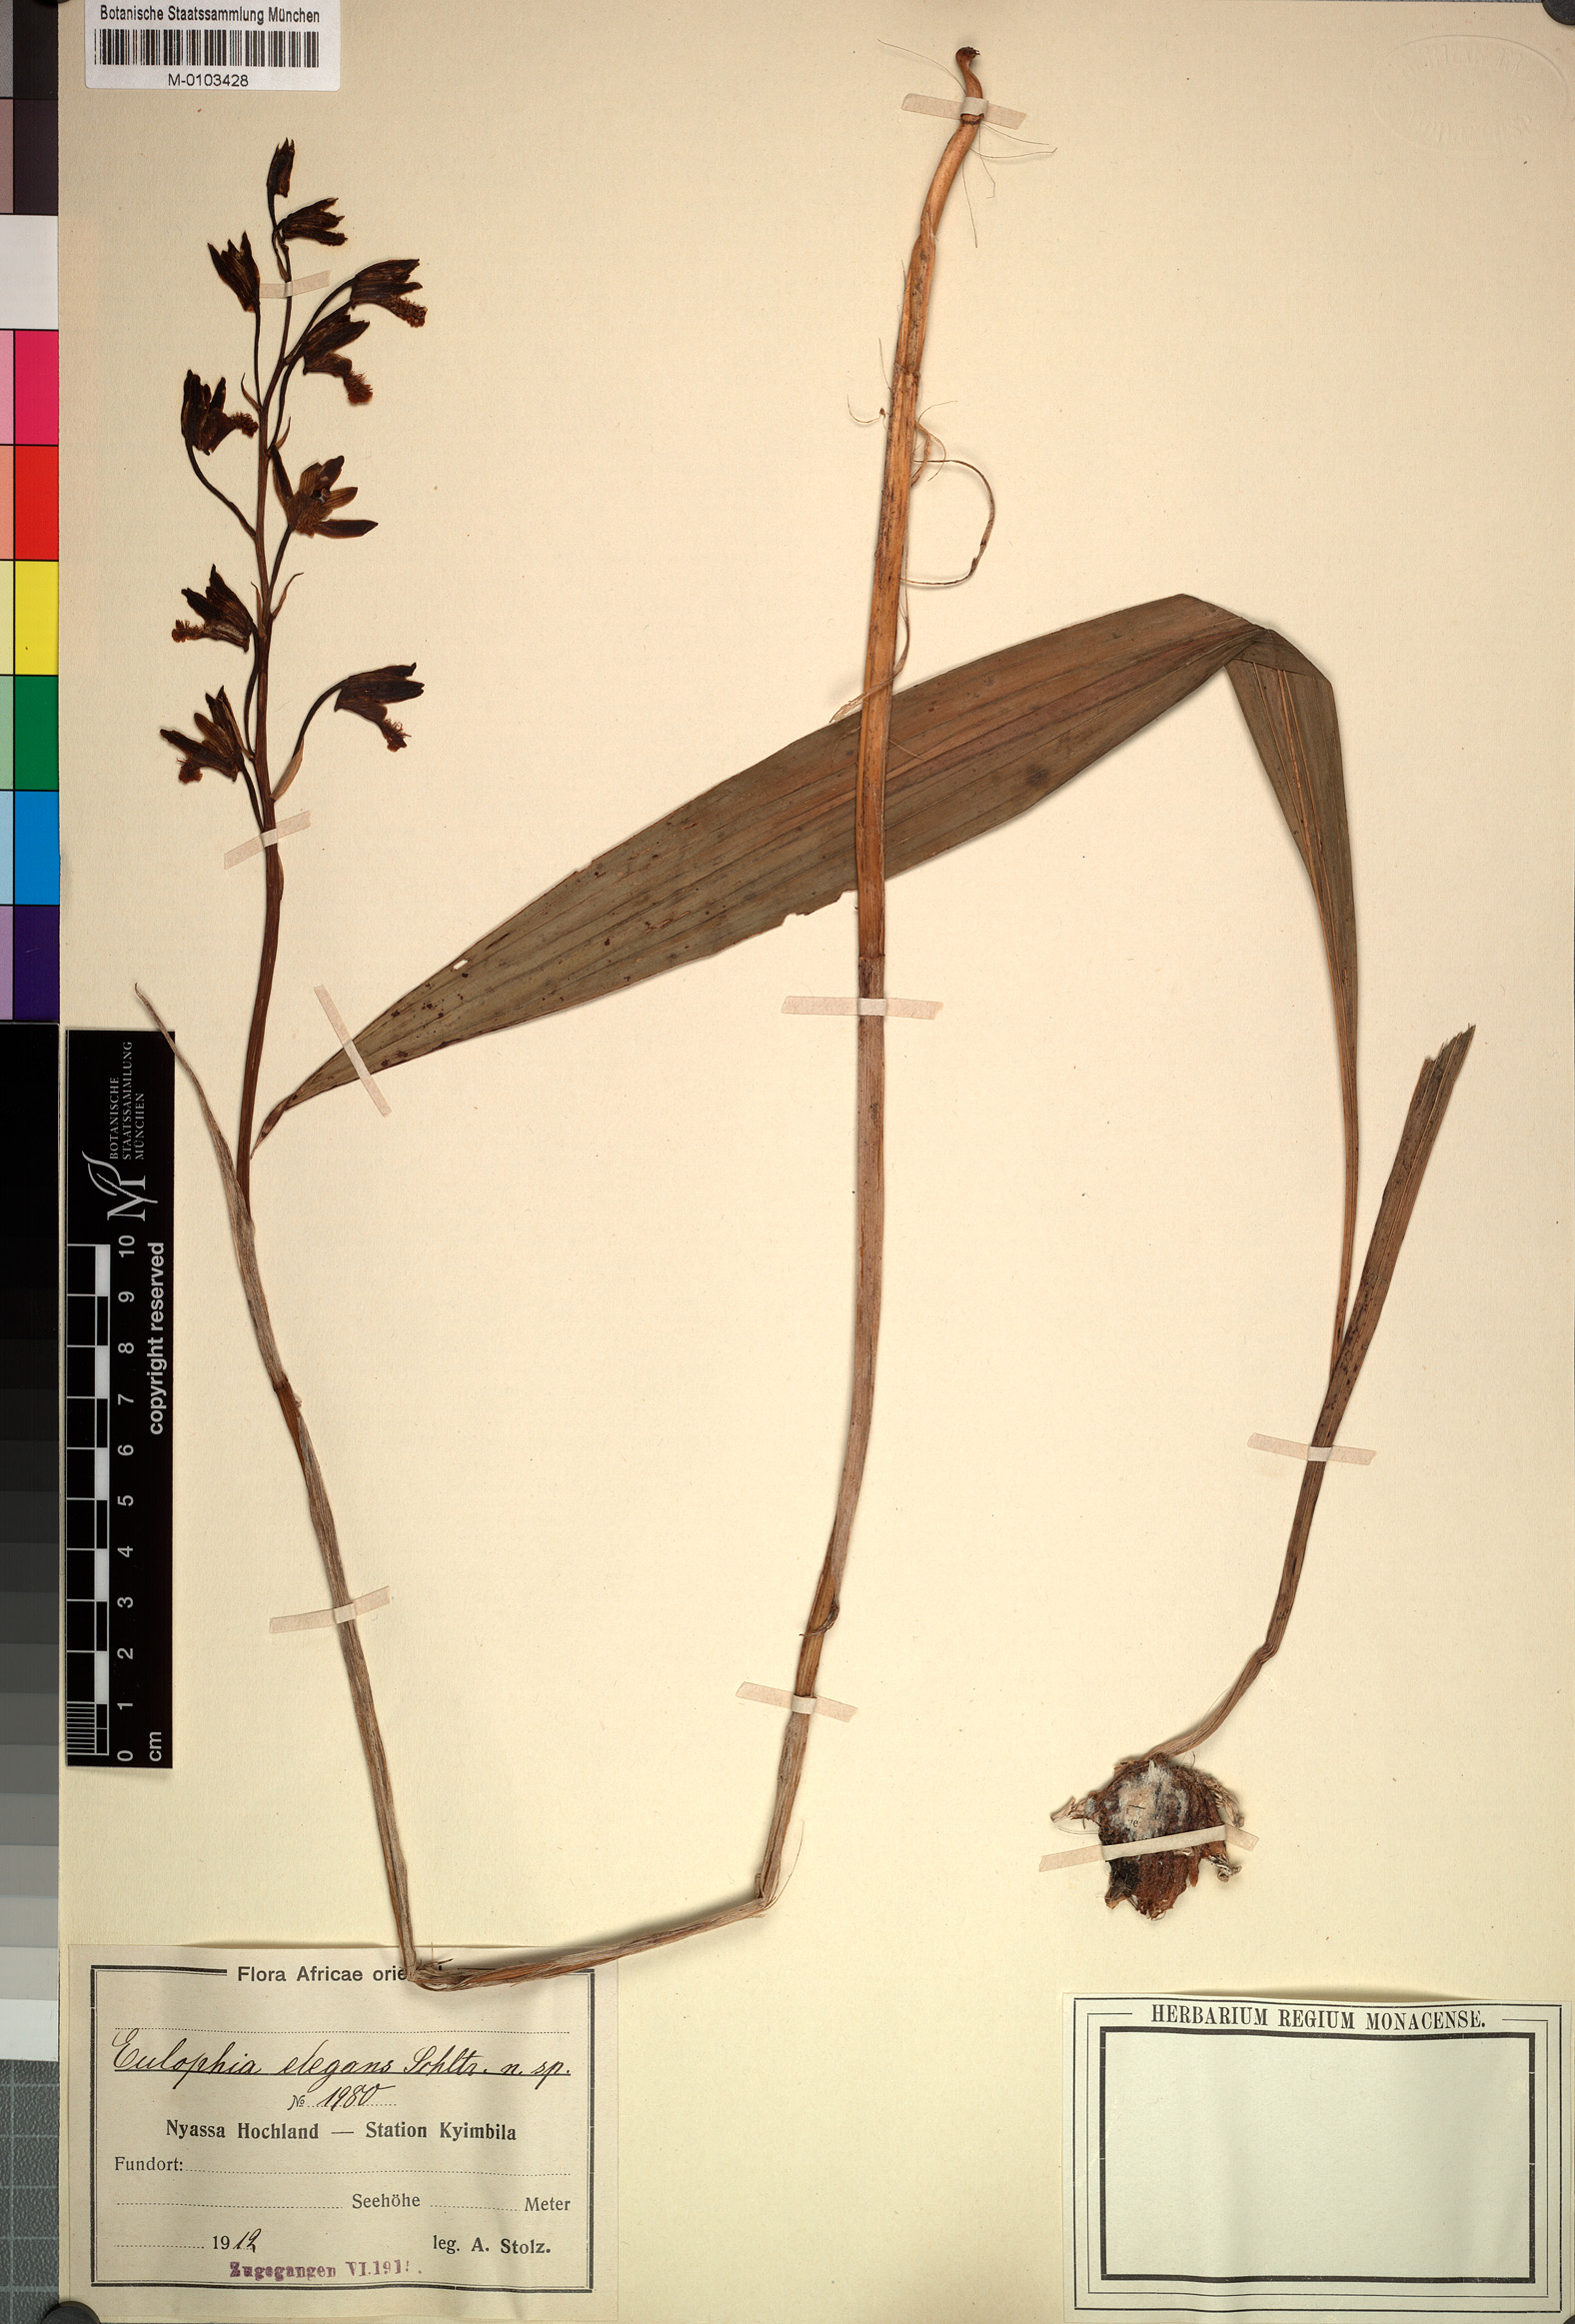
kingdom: Plantae
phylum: Tracheophyta
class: Liliopsida
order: Asparagales
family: Orchidaceae
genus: Eulophia
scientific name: Eulophia elegans
